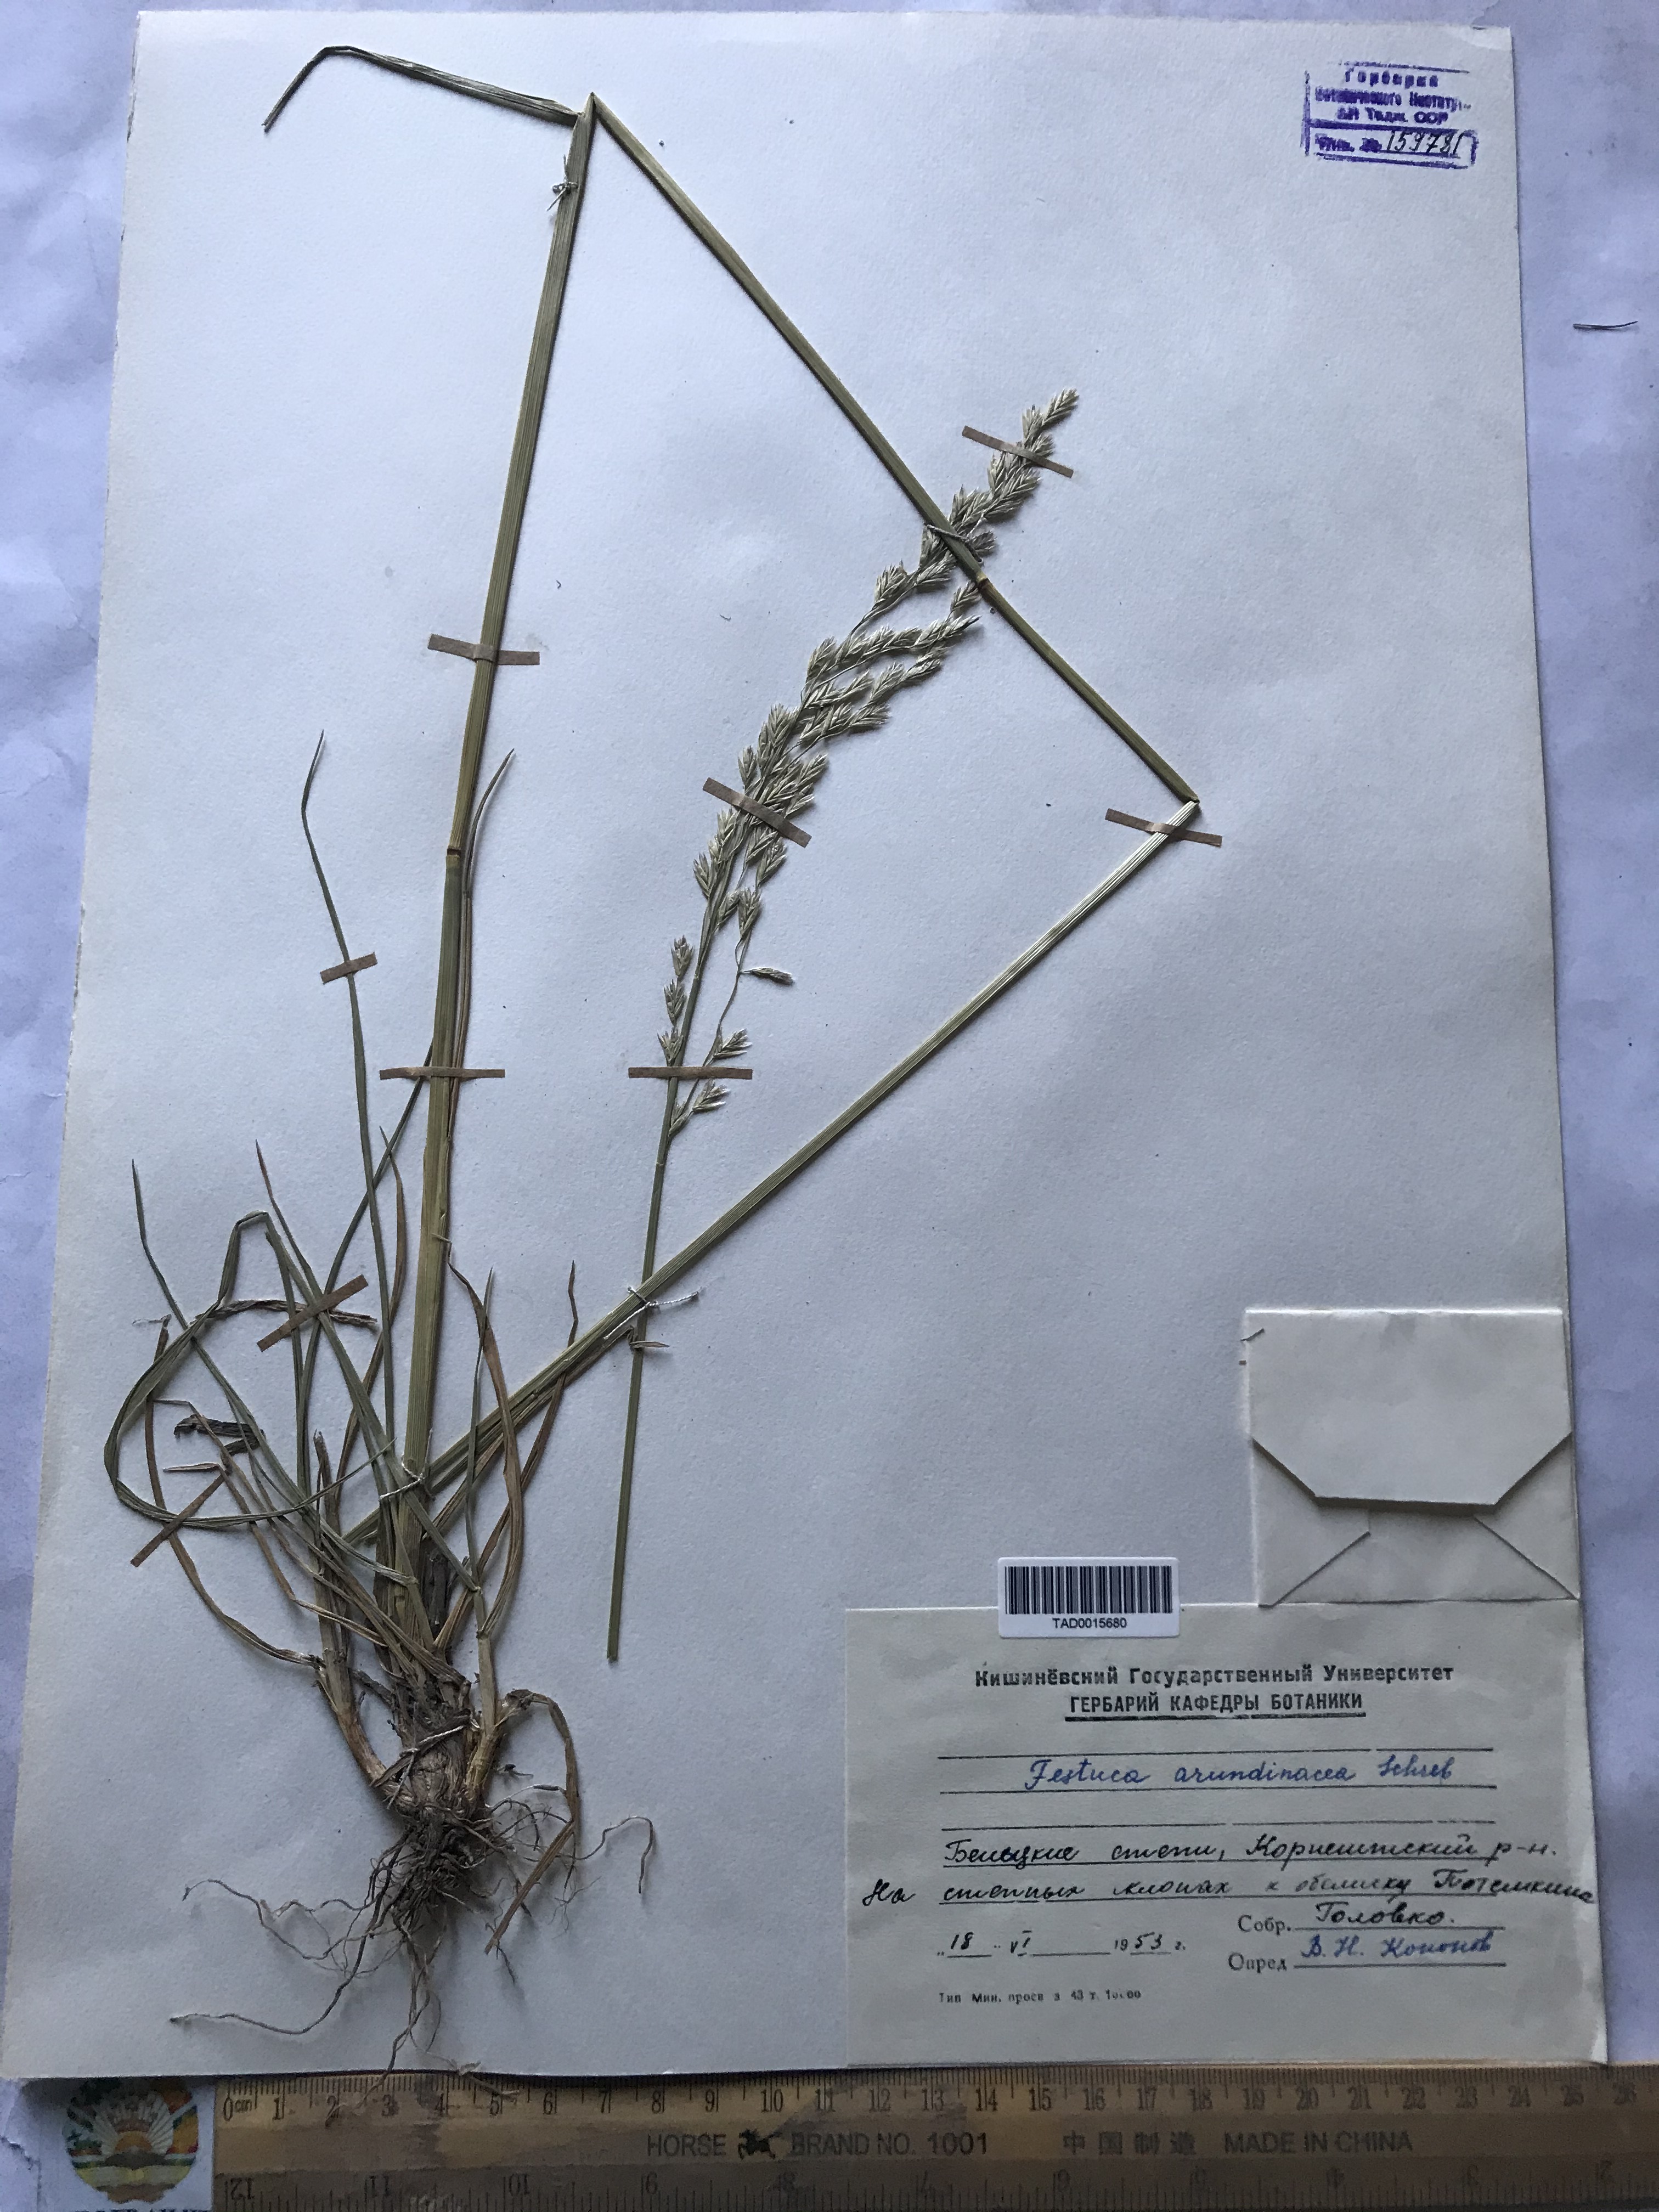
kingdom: Plantae
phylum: Tracheophyta
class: Liliopsida
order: Poales
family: Poaceae
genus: Lolium
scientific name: Lolium arundinaceum
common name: Reed fescue
